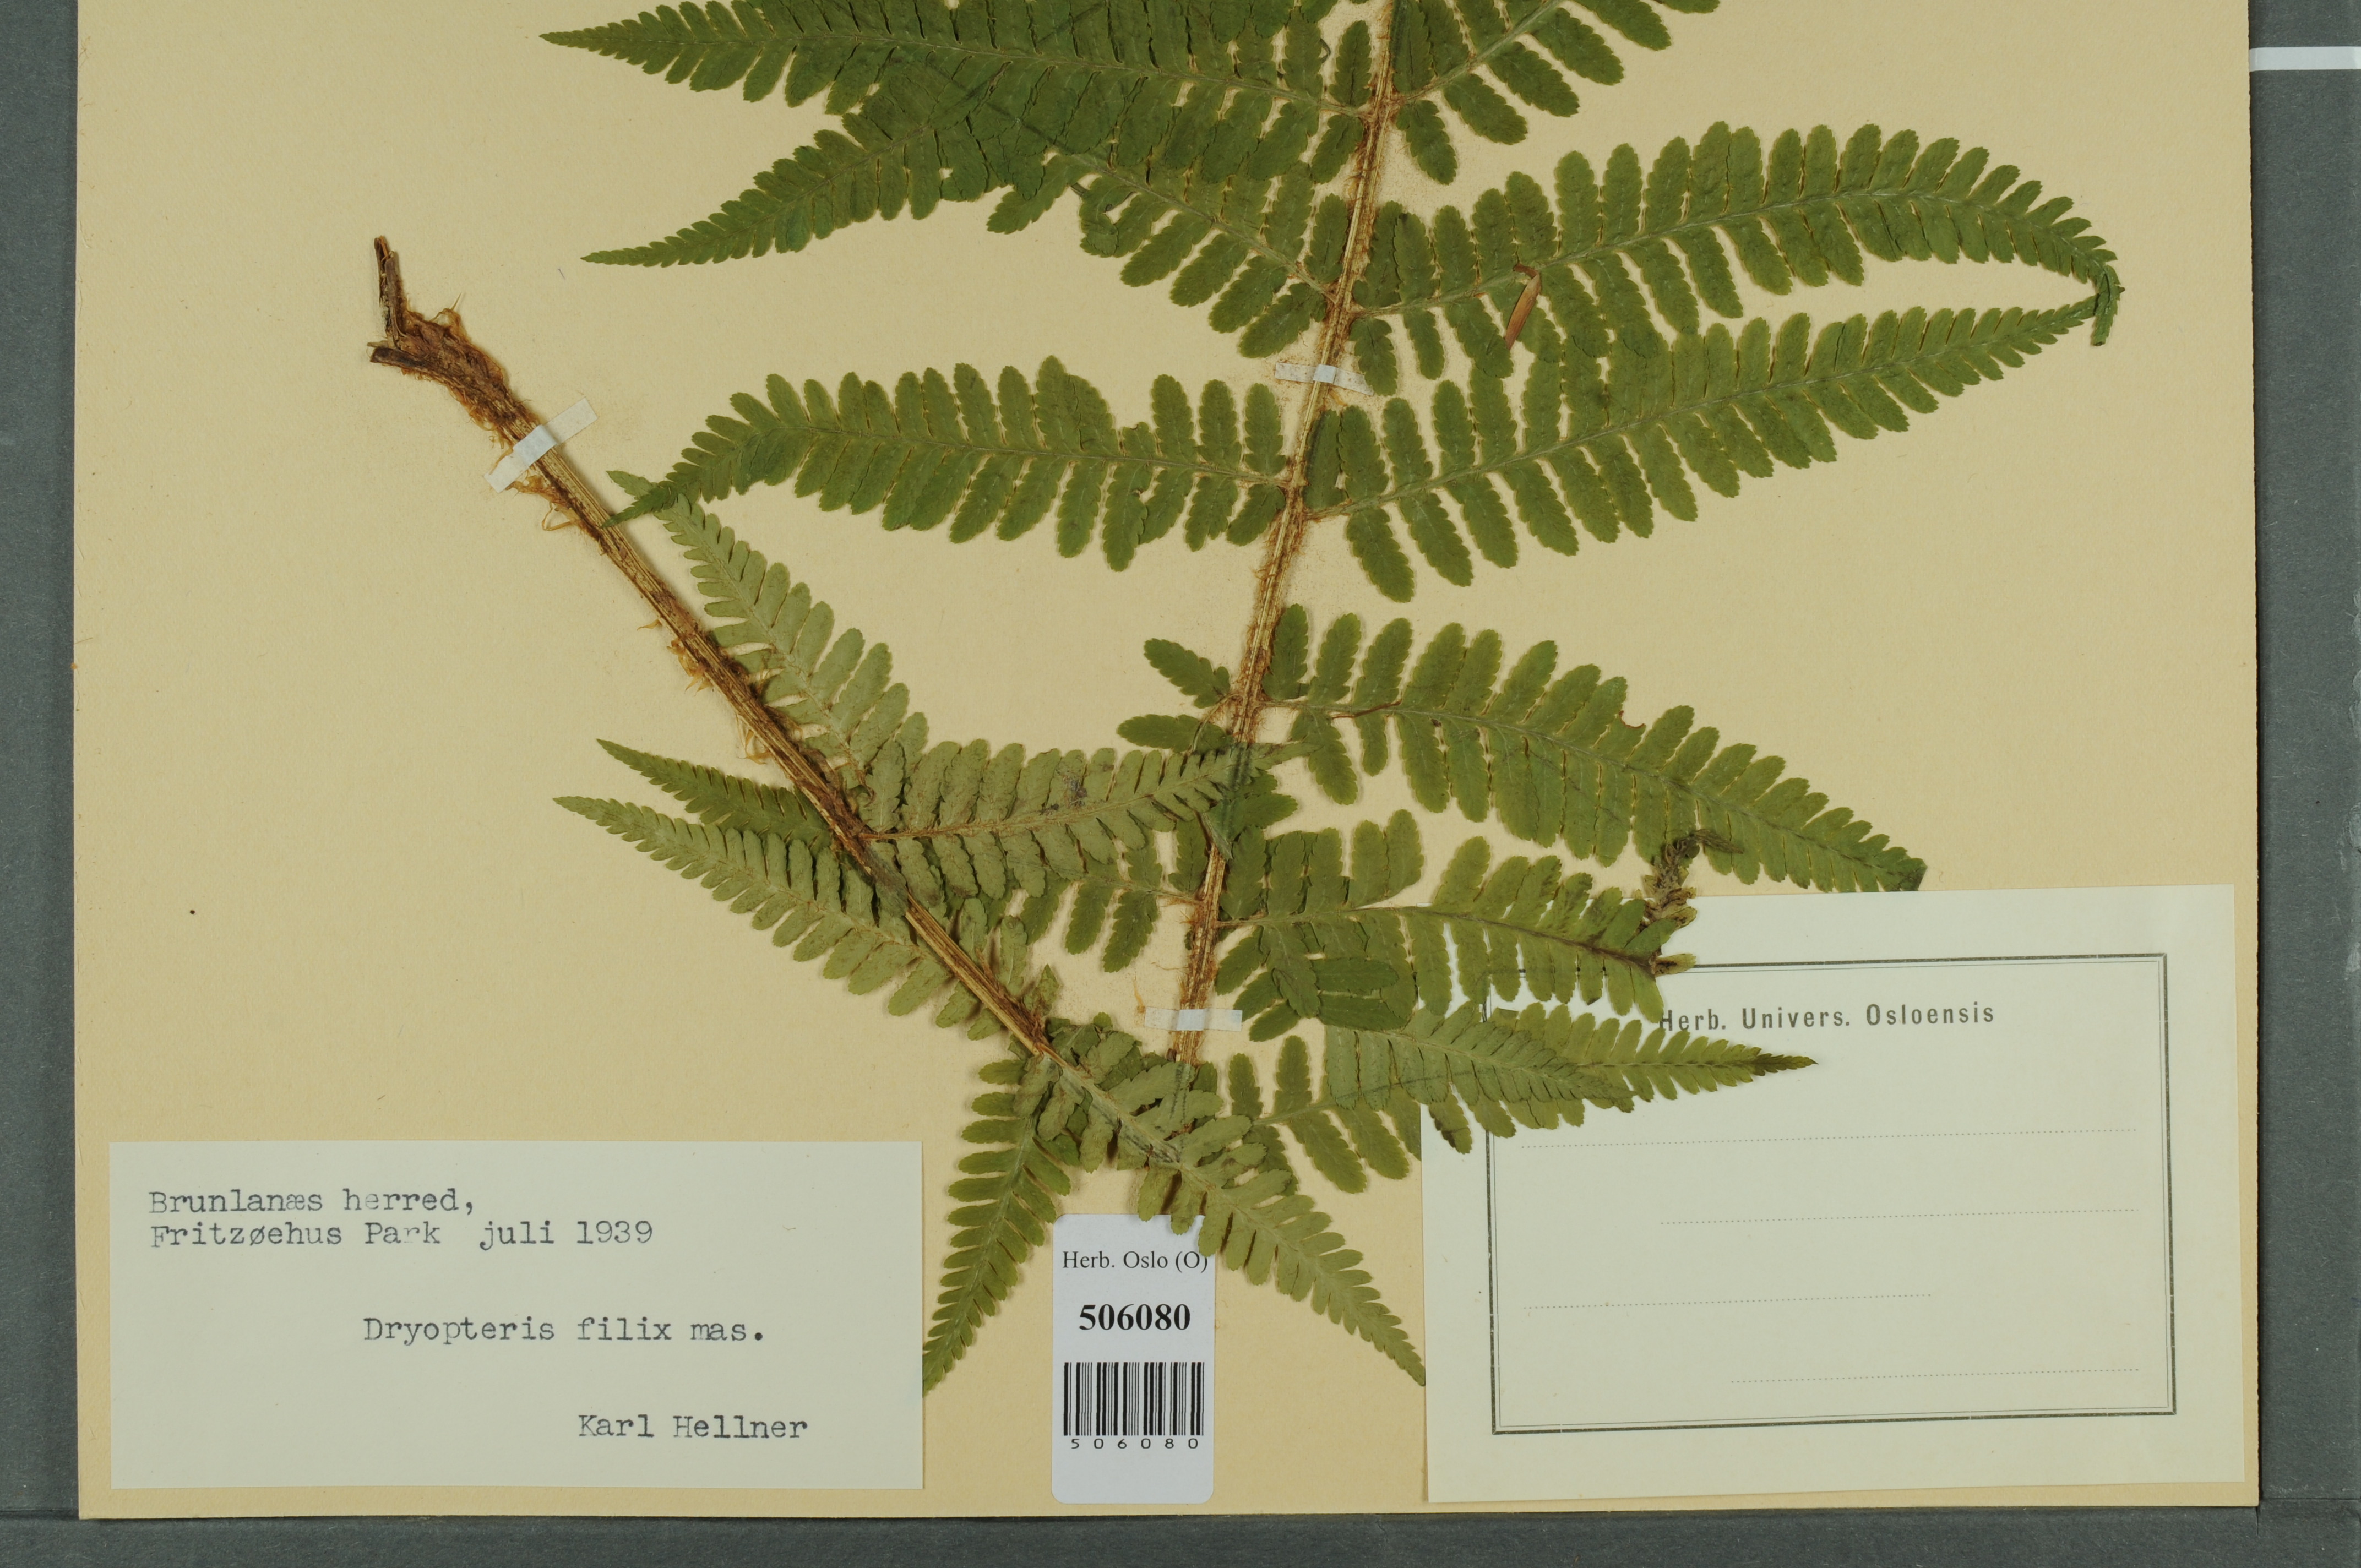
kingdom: Plantae
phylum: Tracheophyta
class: Polypodiopsida
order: Polypodiales
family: Dryopteridaceae
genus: Dryopteris
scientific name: Dryopteris filix-mas
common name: Male fern
